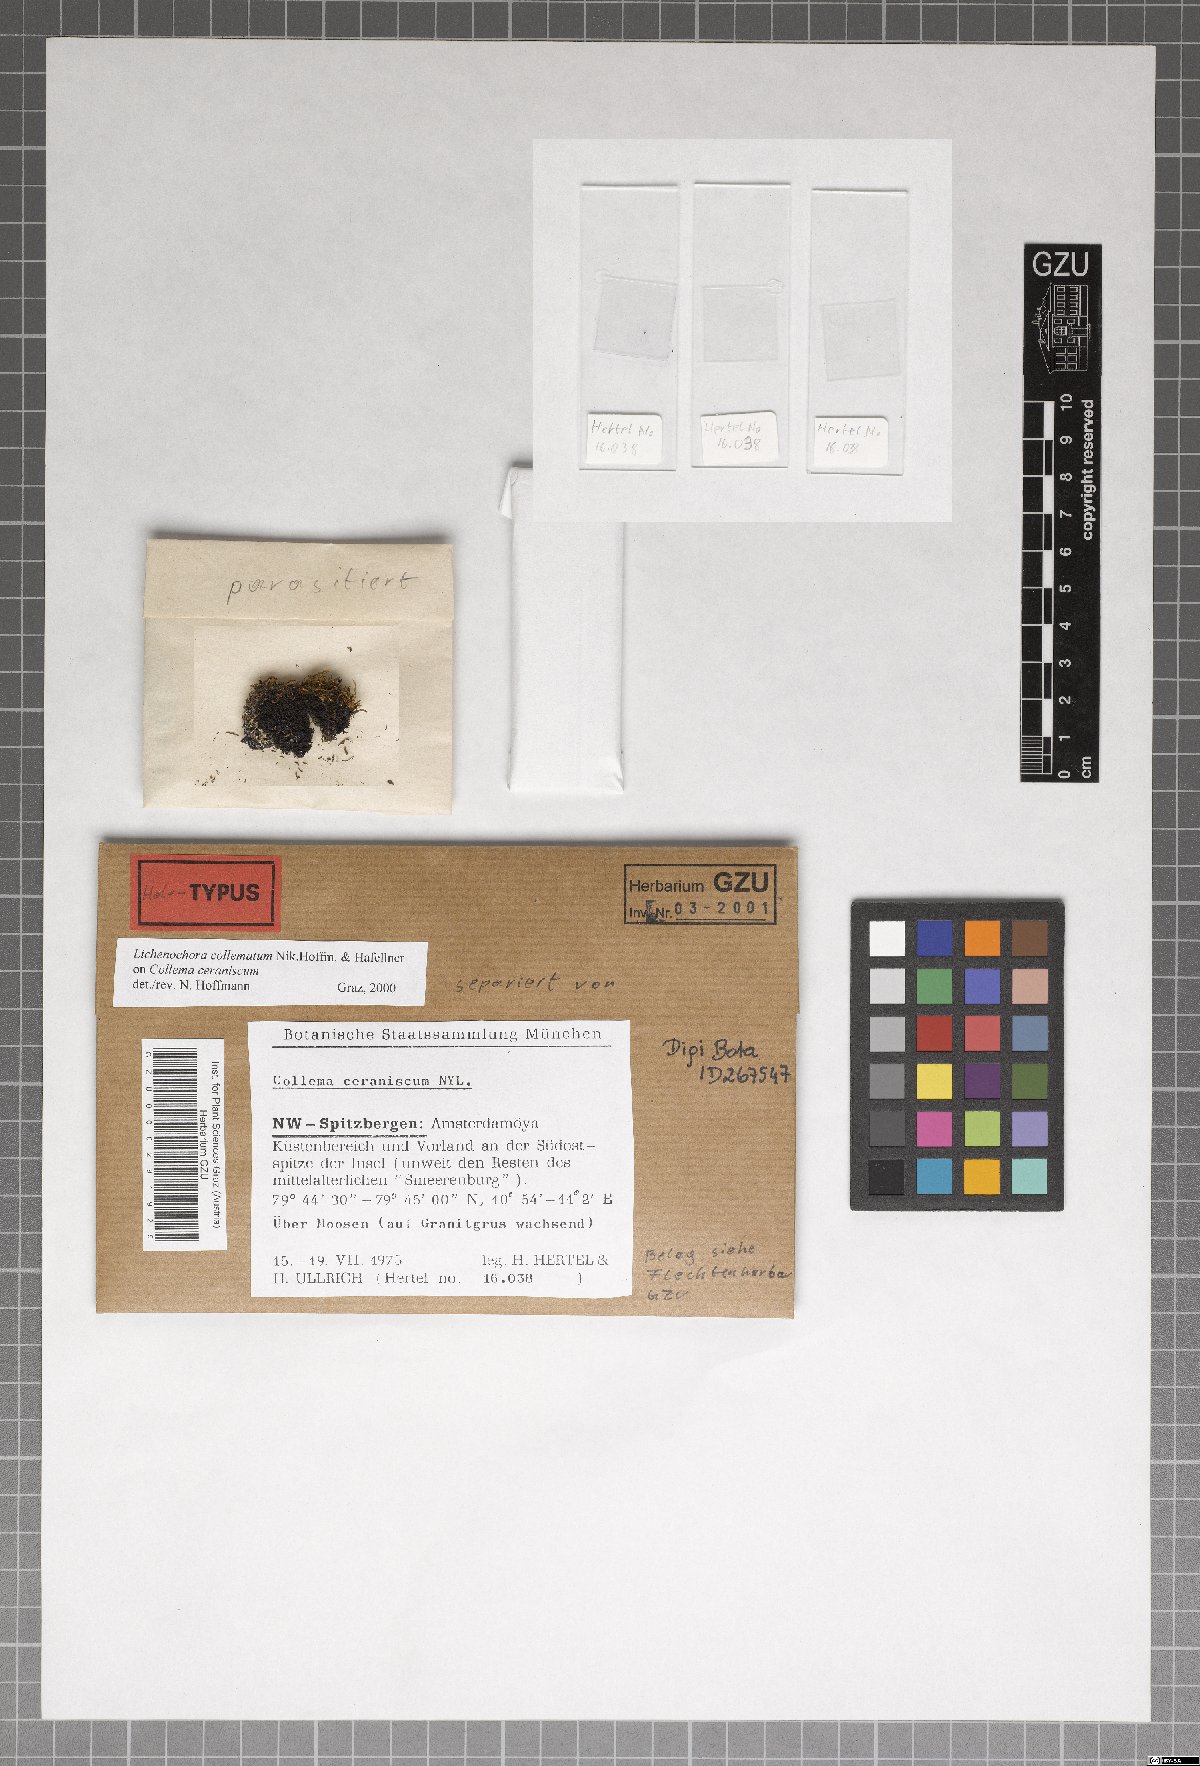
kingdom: Fungi
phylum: Ascomycota
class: Sordariomycetes
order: Phyllachorales
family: Phyllachoraceae
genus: Lichenochora
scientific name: Lichenochora collematum
